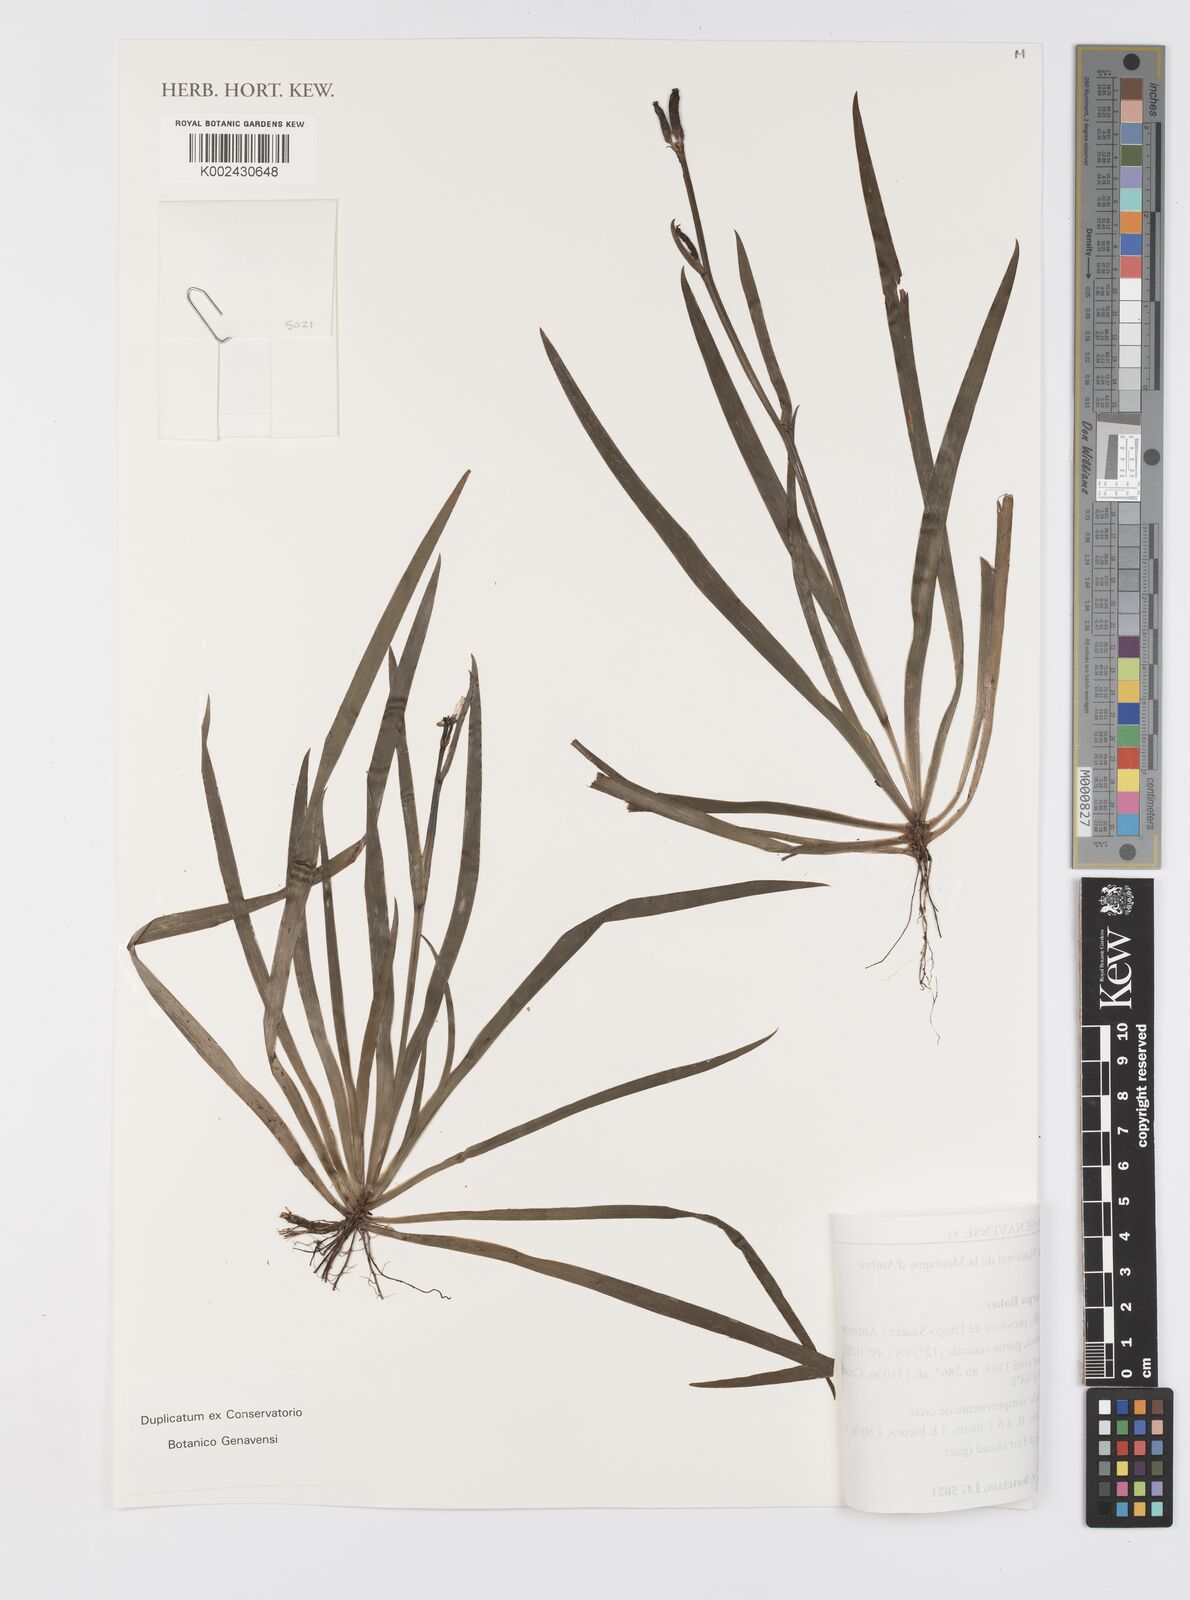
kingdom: Plantae
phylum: Tracheophyta
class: Liliopsida
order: Asparagales
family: Iridaceae
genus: Aristea
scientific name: Aristea cladocarpa
